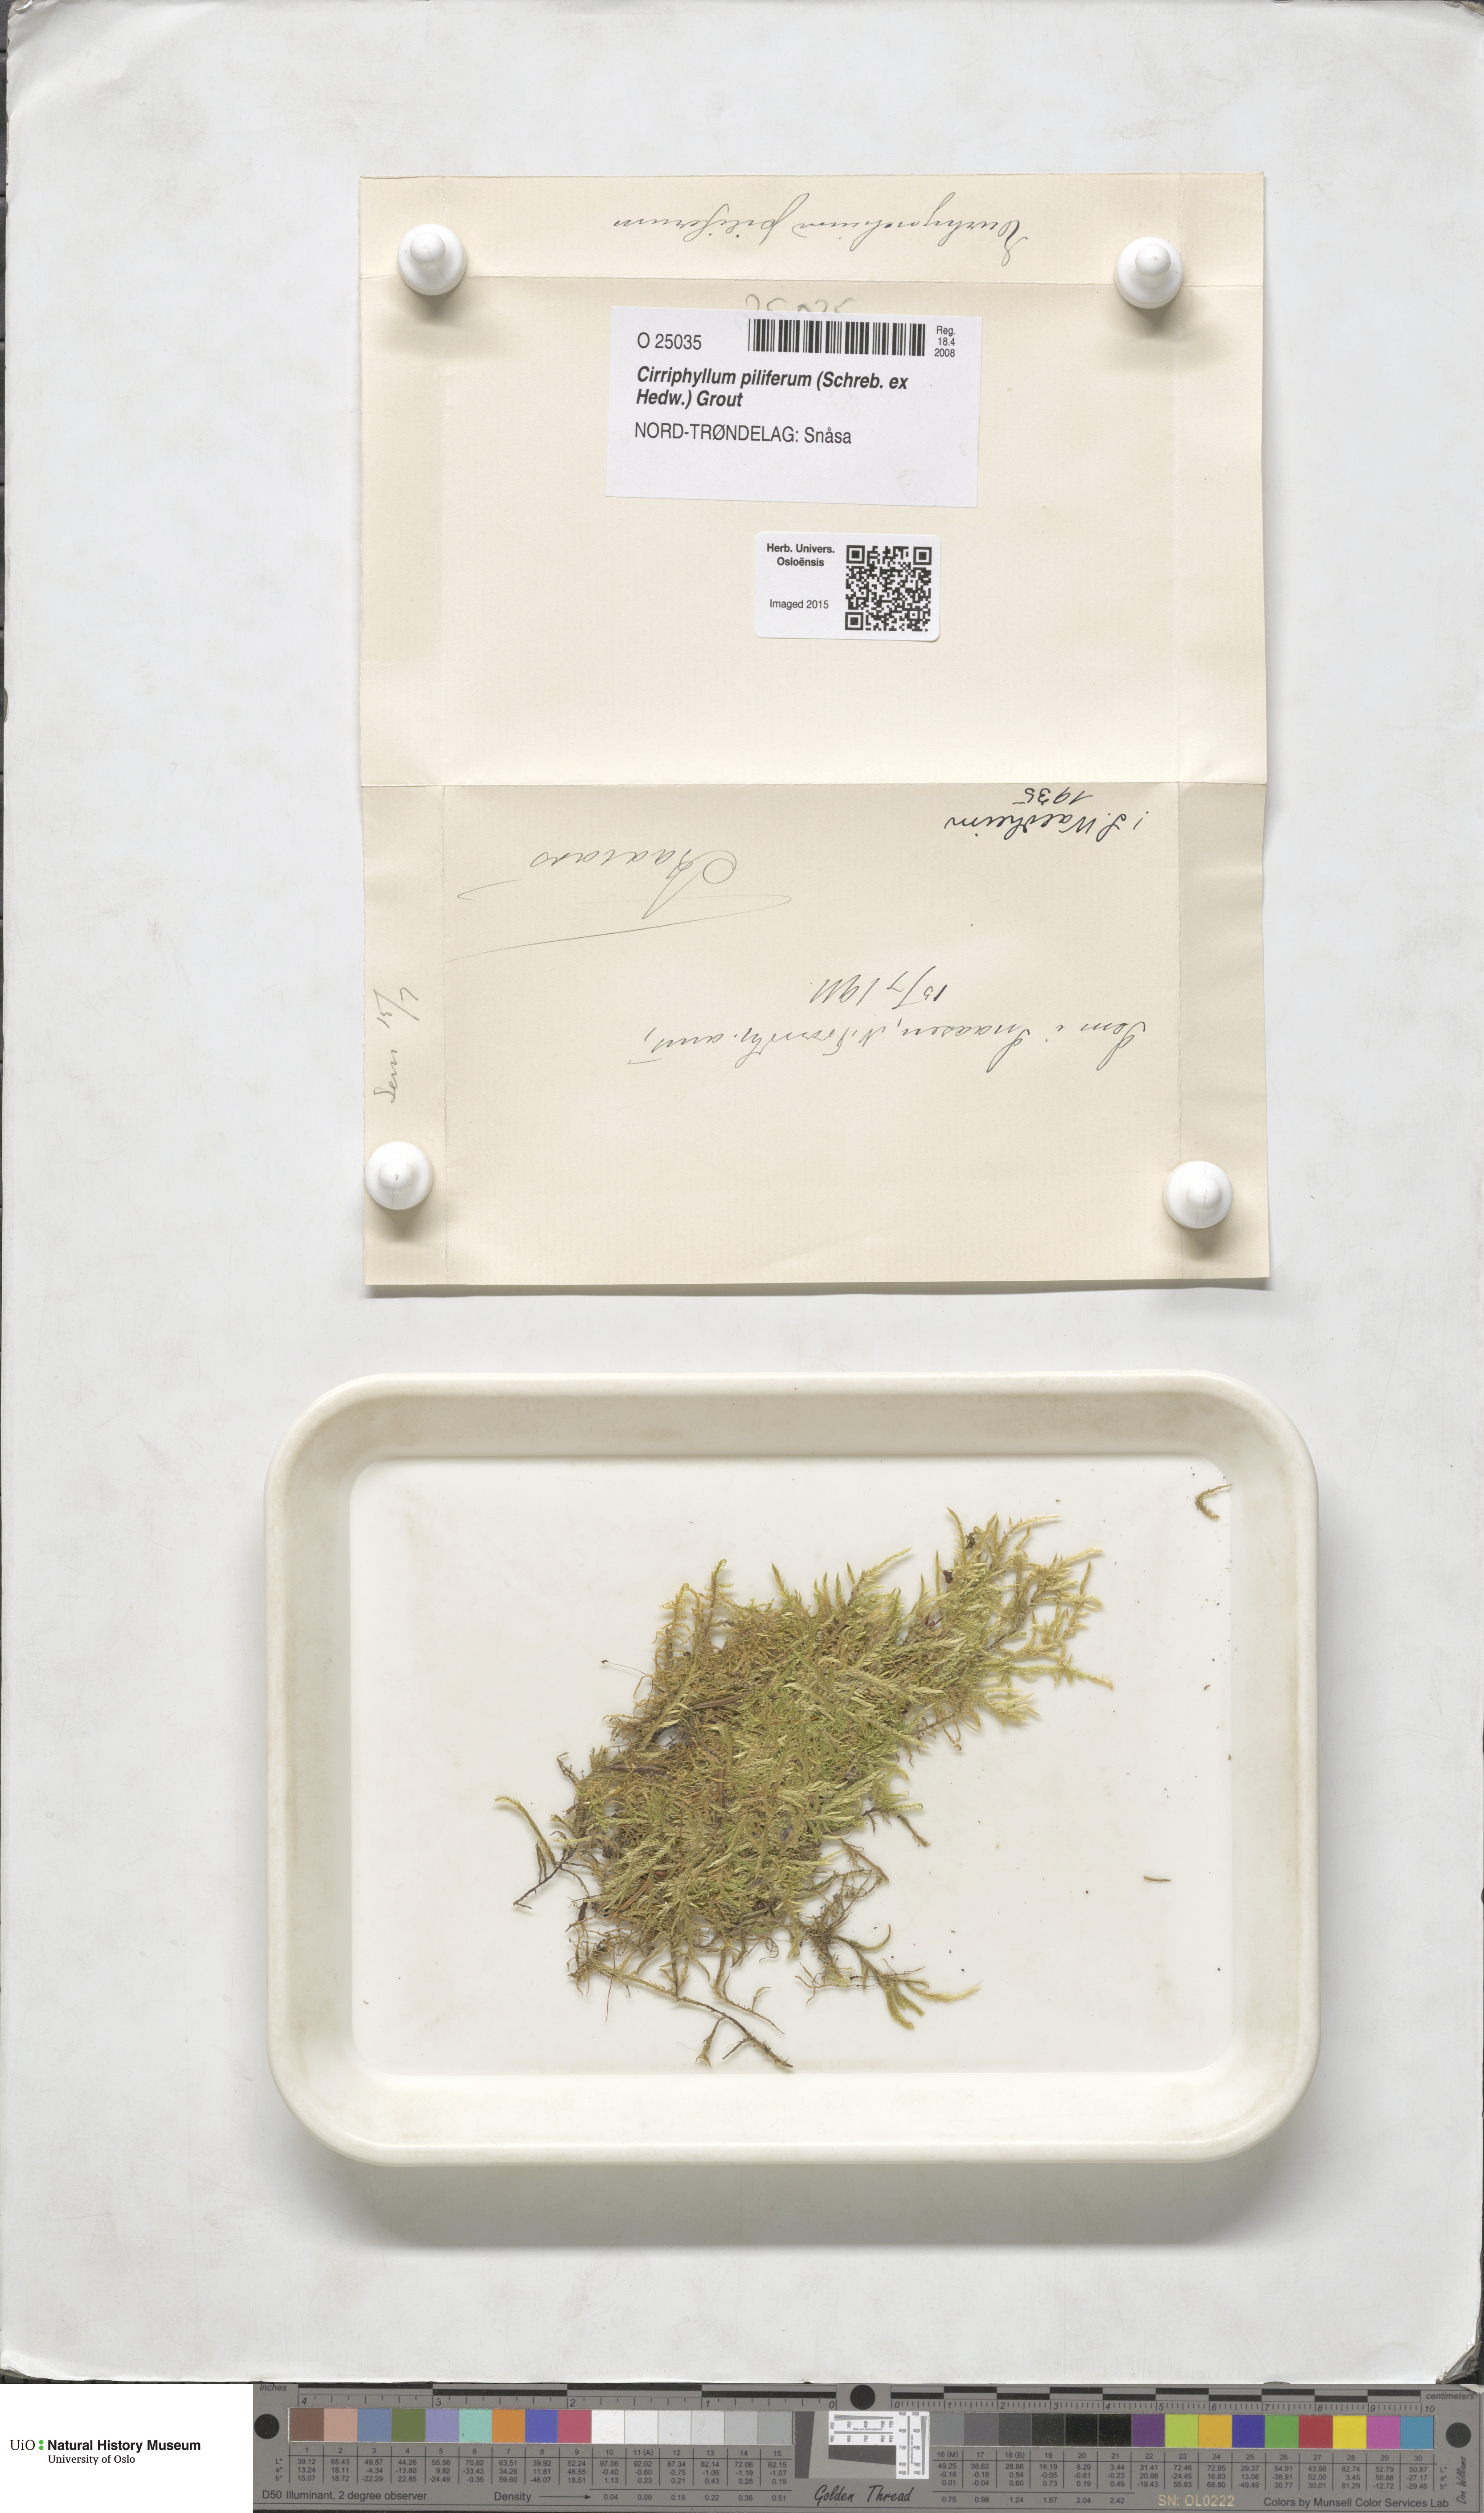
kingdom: Plantae
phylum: Bryophyta
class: Bryopsida
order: Hypnales
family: Brachytheciaceae
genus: Cirriphyllum
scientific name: Cirriphyllum piliferum
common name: Hair-pointed moss
